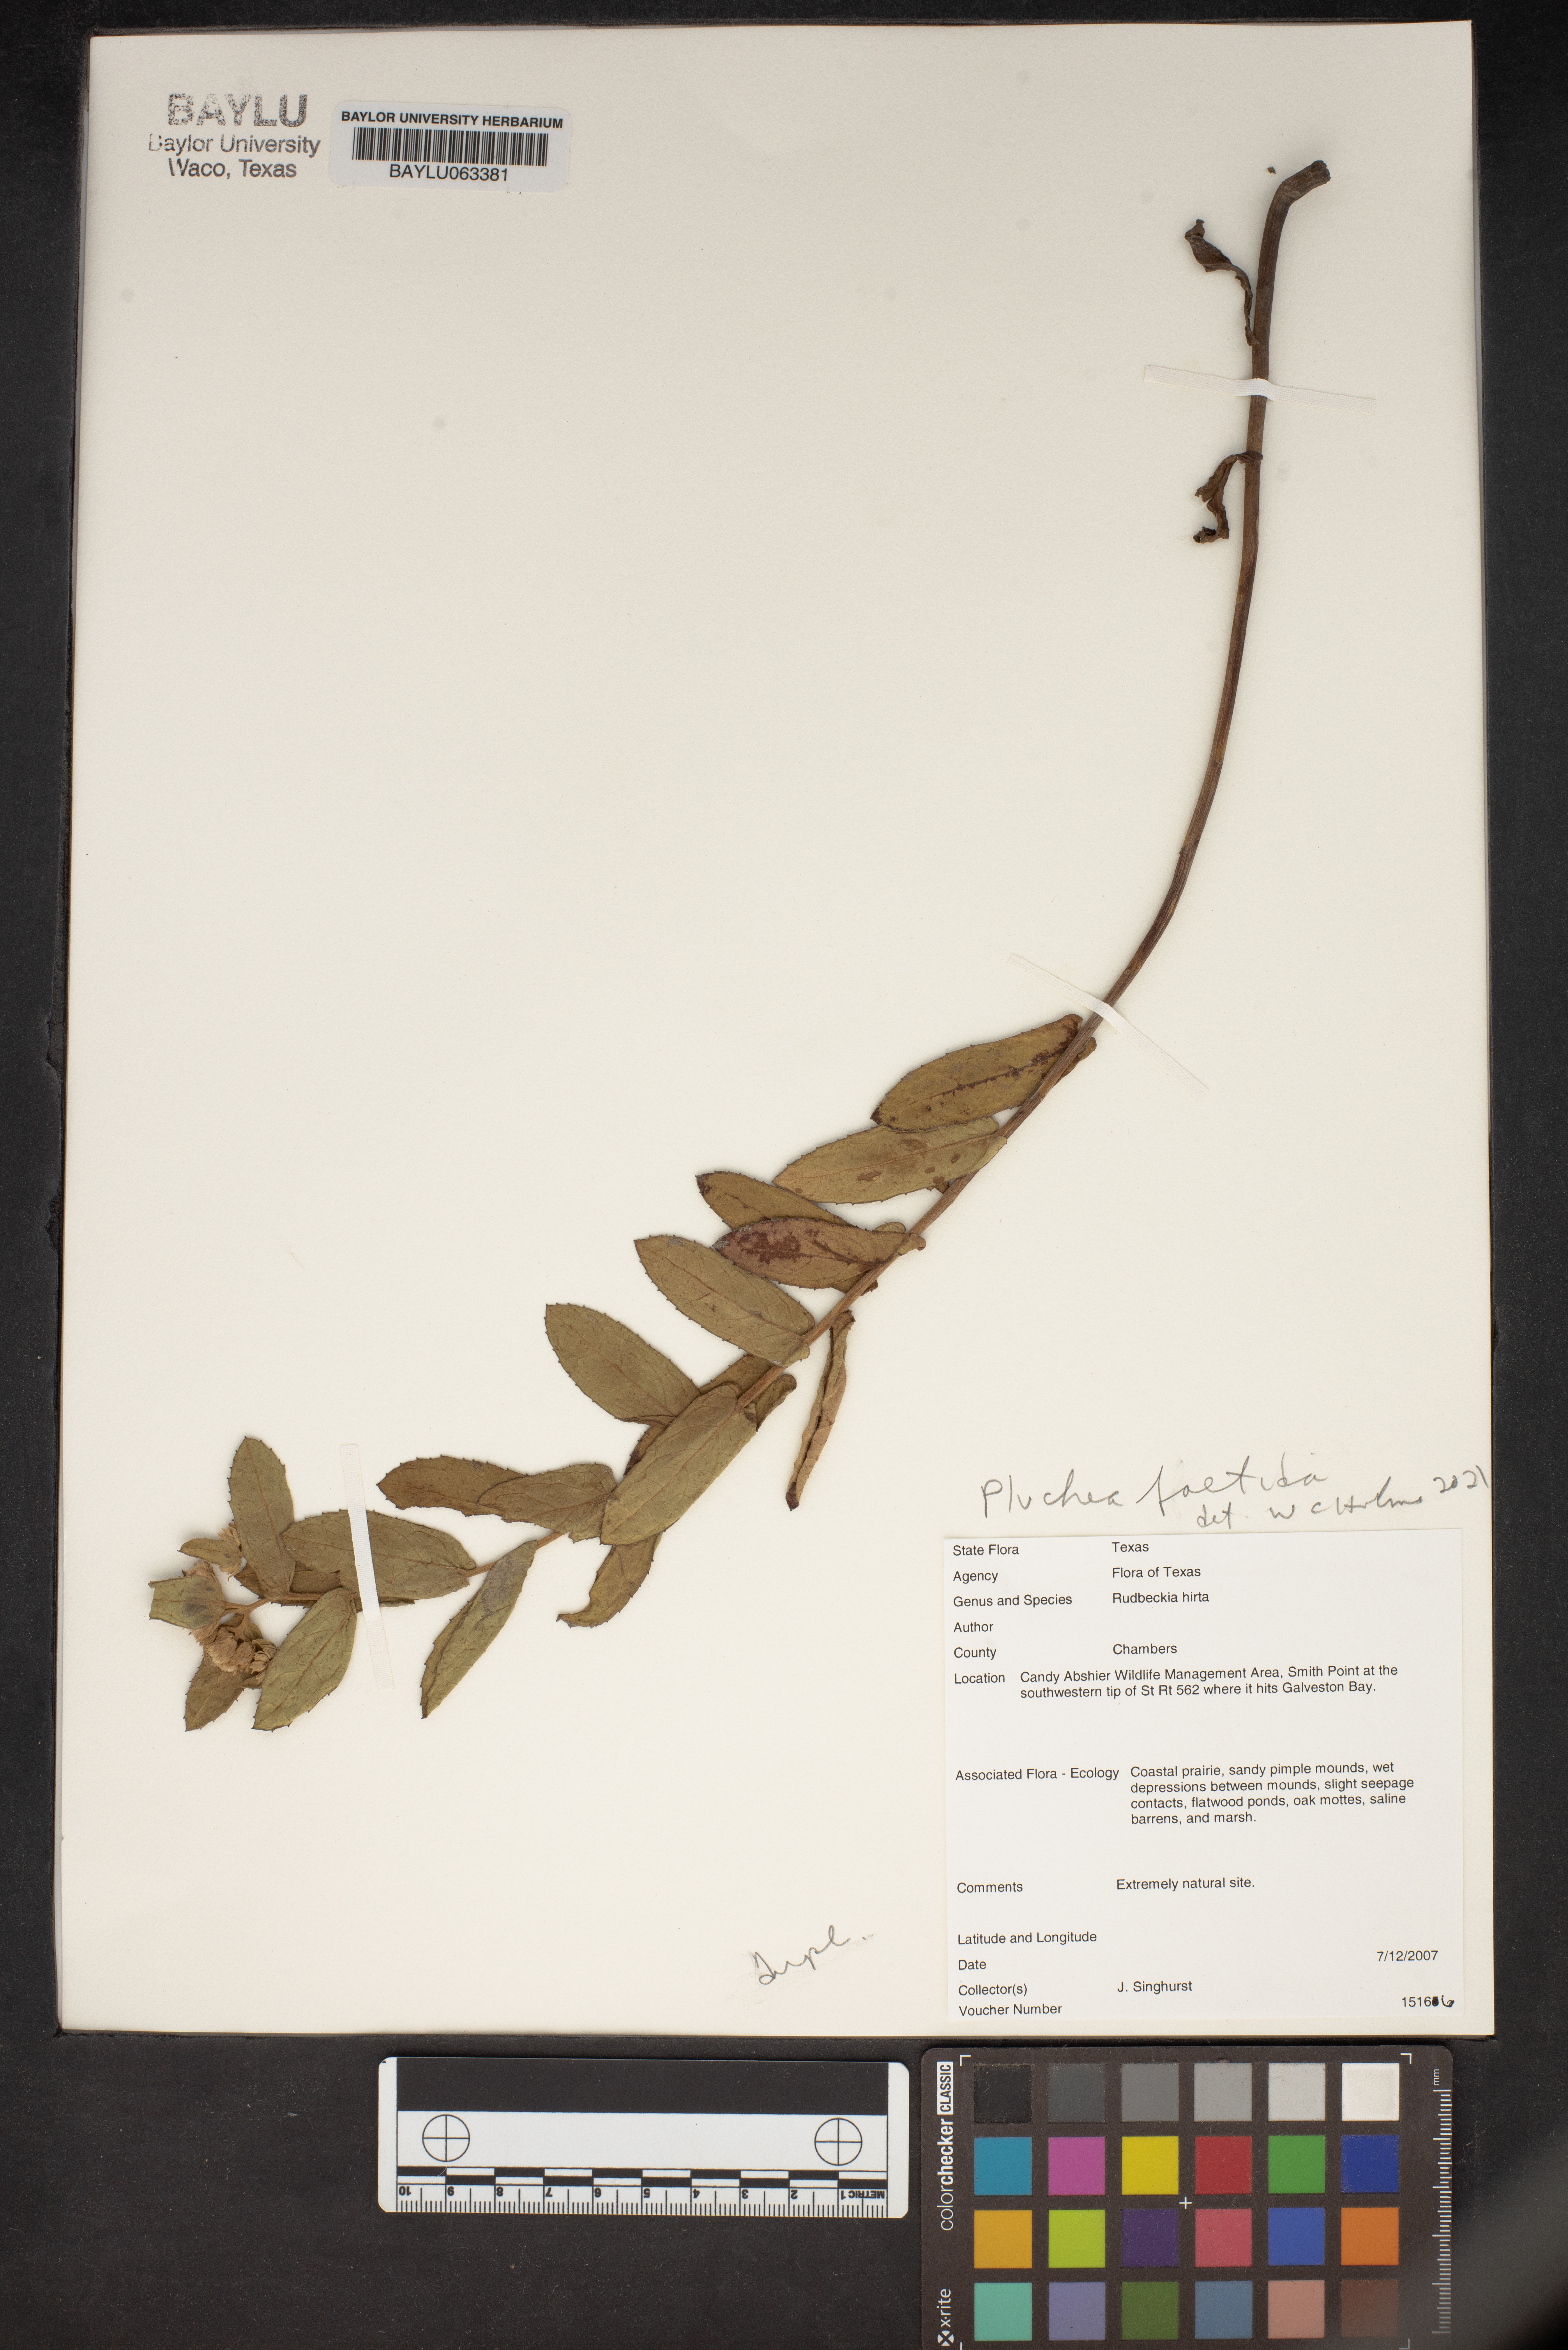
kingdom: Plantae
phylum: Tracheophyta
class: Magnoliopsida
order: Asterales
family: Asteraceae
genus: Pluchea
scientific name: Pluchea foetida
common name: Stinking camphorweed
